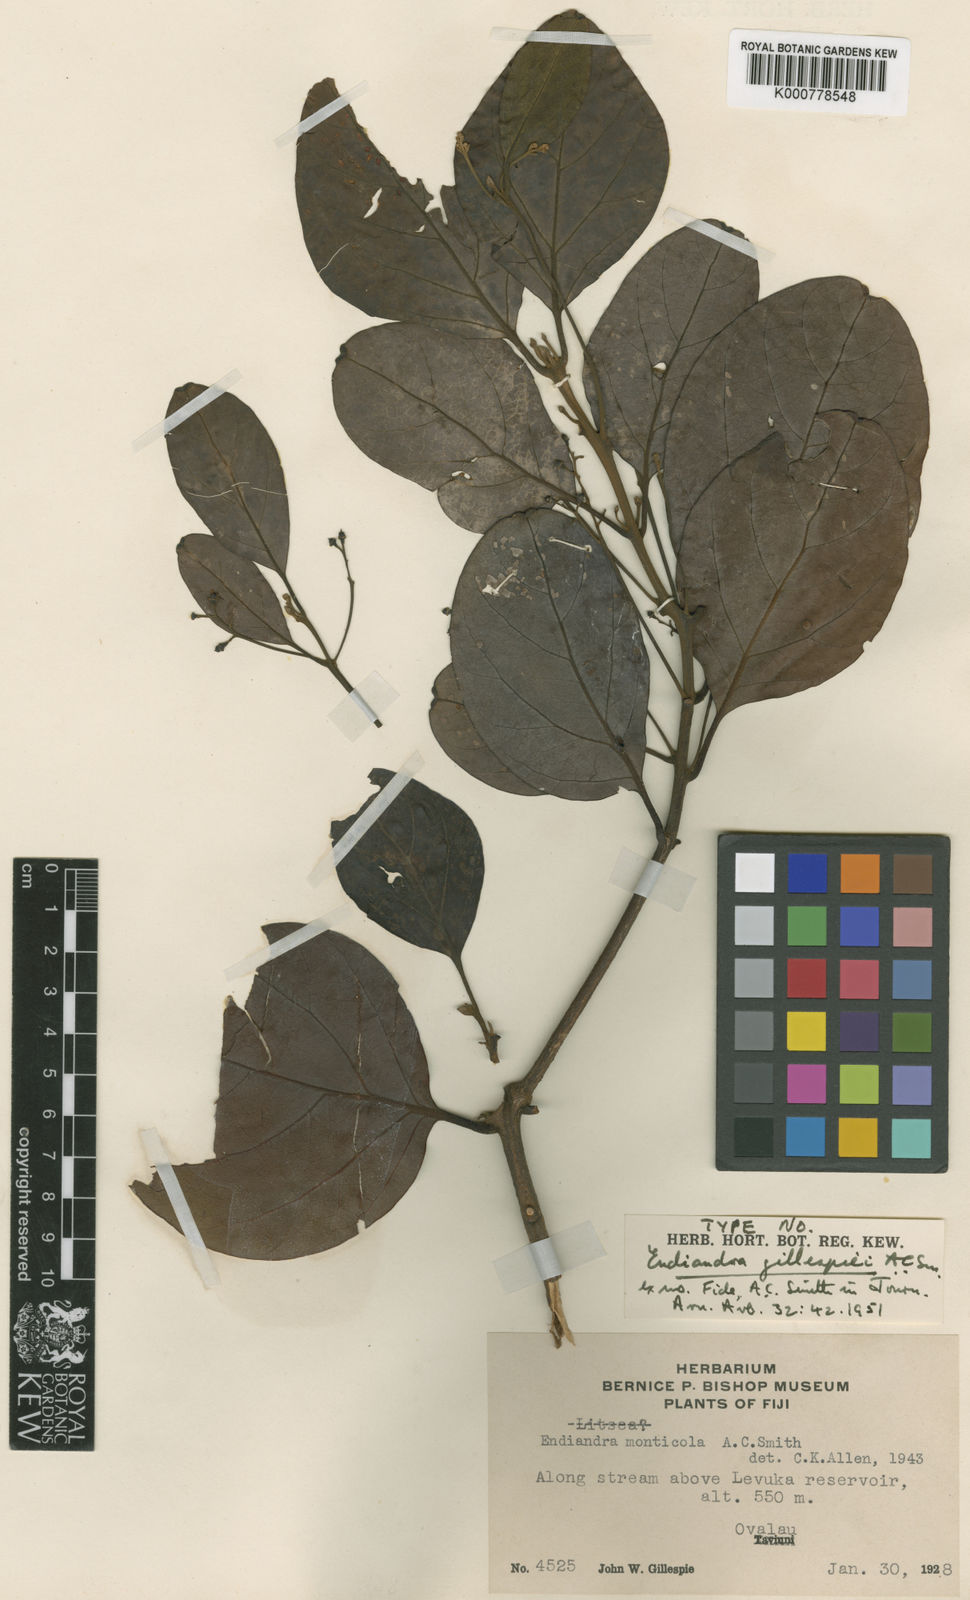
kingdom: Plantae
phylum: Tracheophyta
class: Magnoliopsida
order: Laurales
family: Lauraceae
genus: Endiandra
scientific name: Endiandra gillespiei
